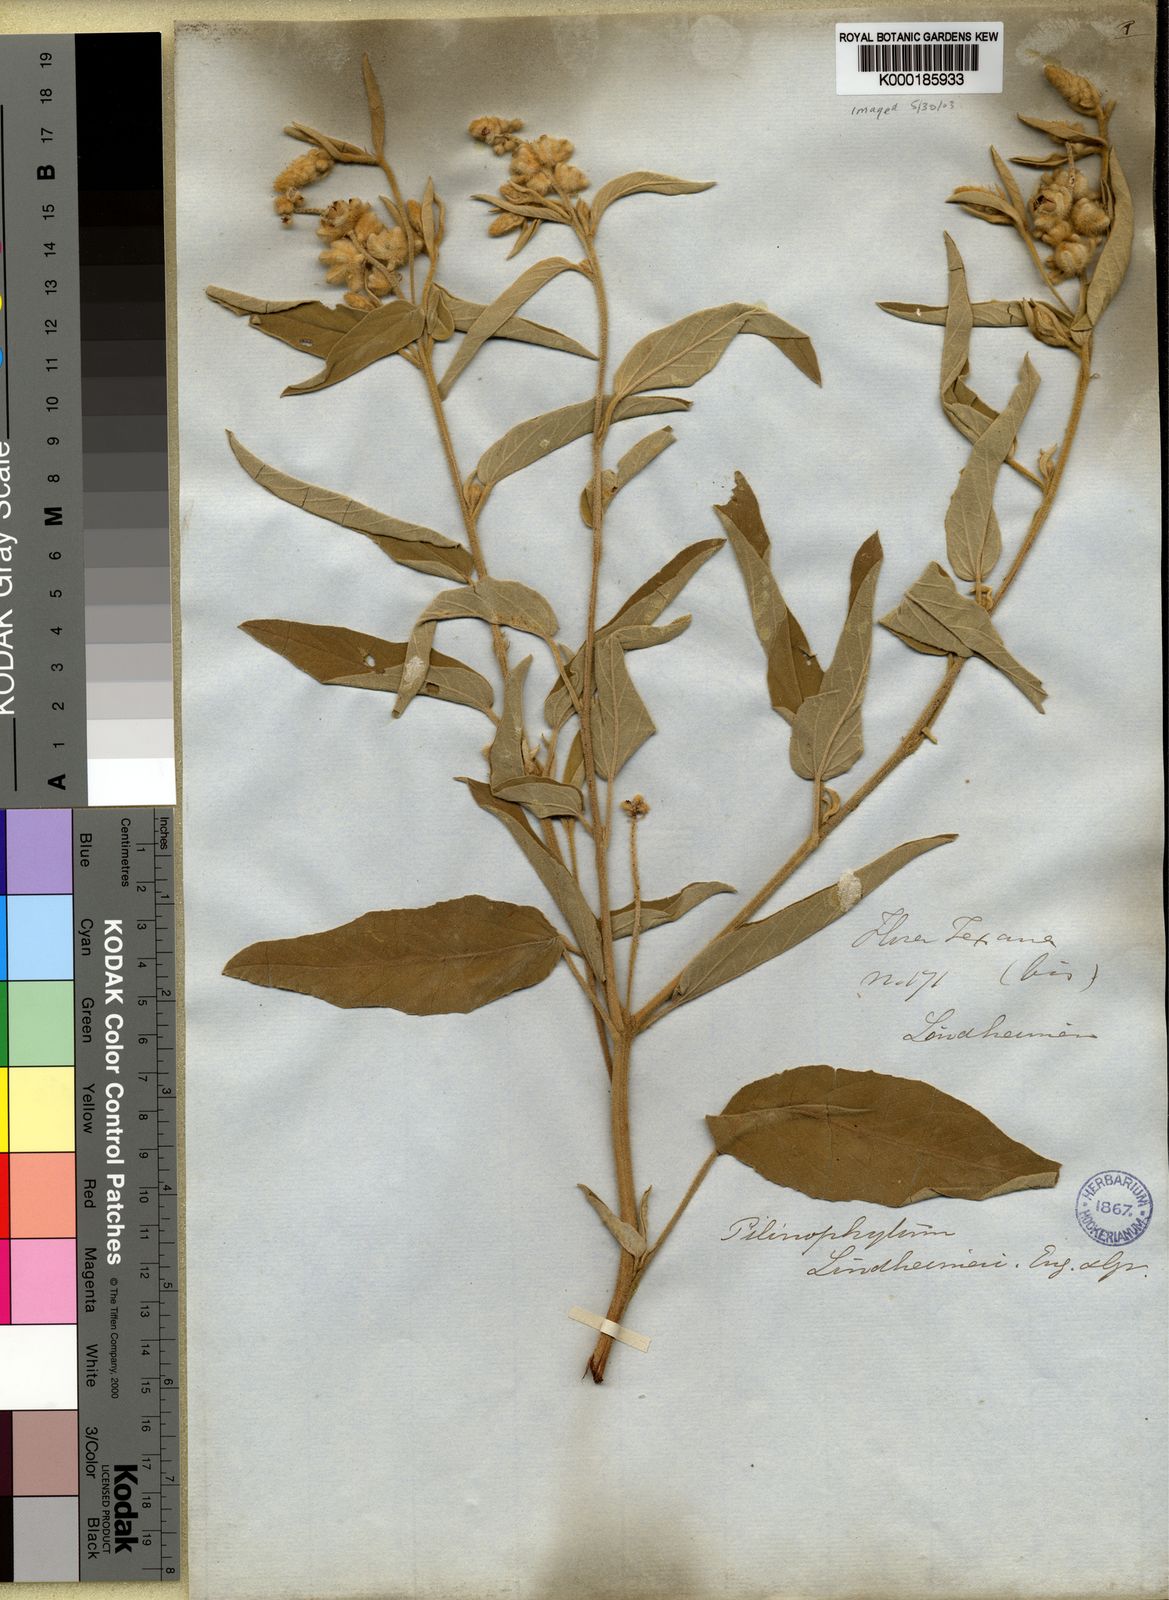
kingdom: Plantae
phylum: Tracheophyta
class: Magnoliopsida
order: Malpighiales
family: Euphorbiaceae
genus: Croton
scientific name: Croton capitatus
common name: Woolly croton
